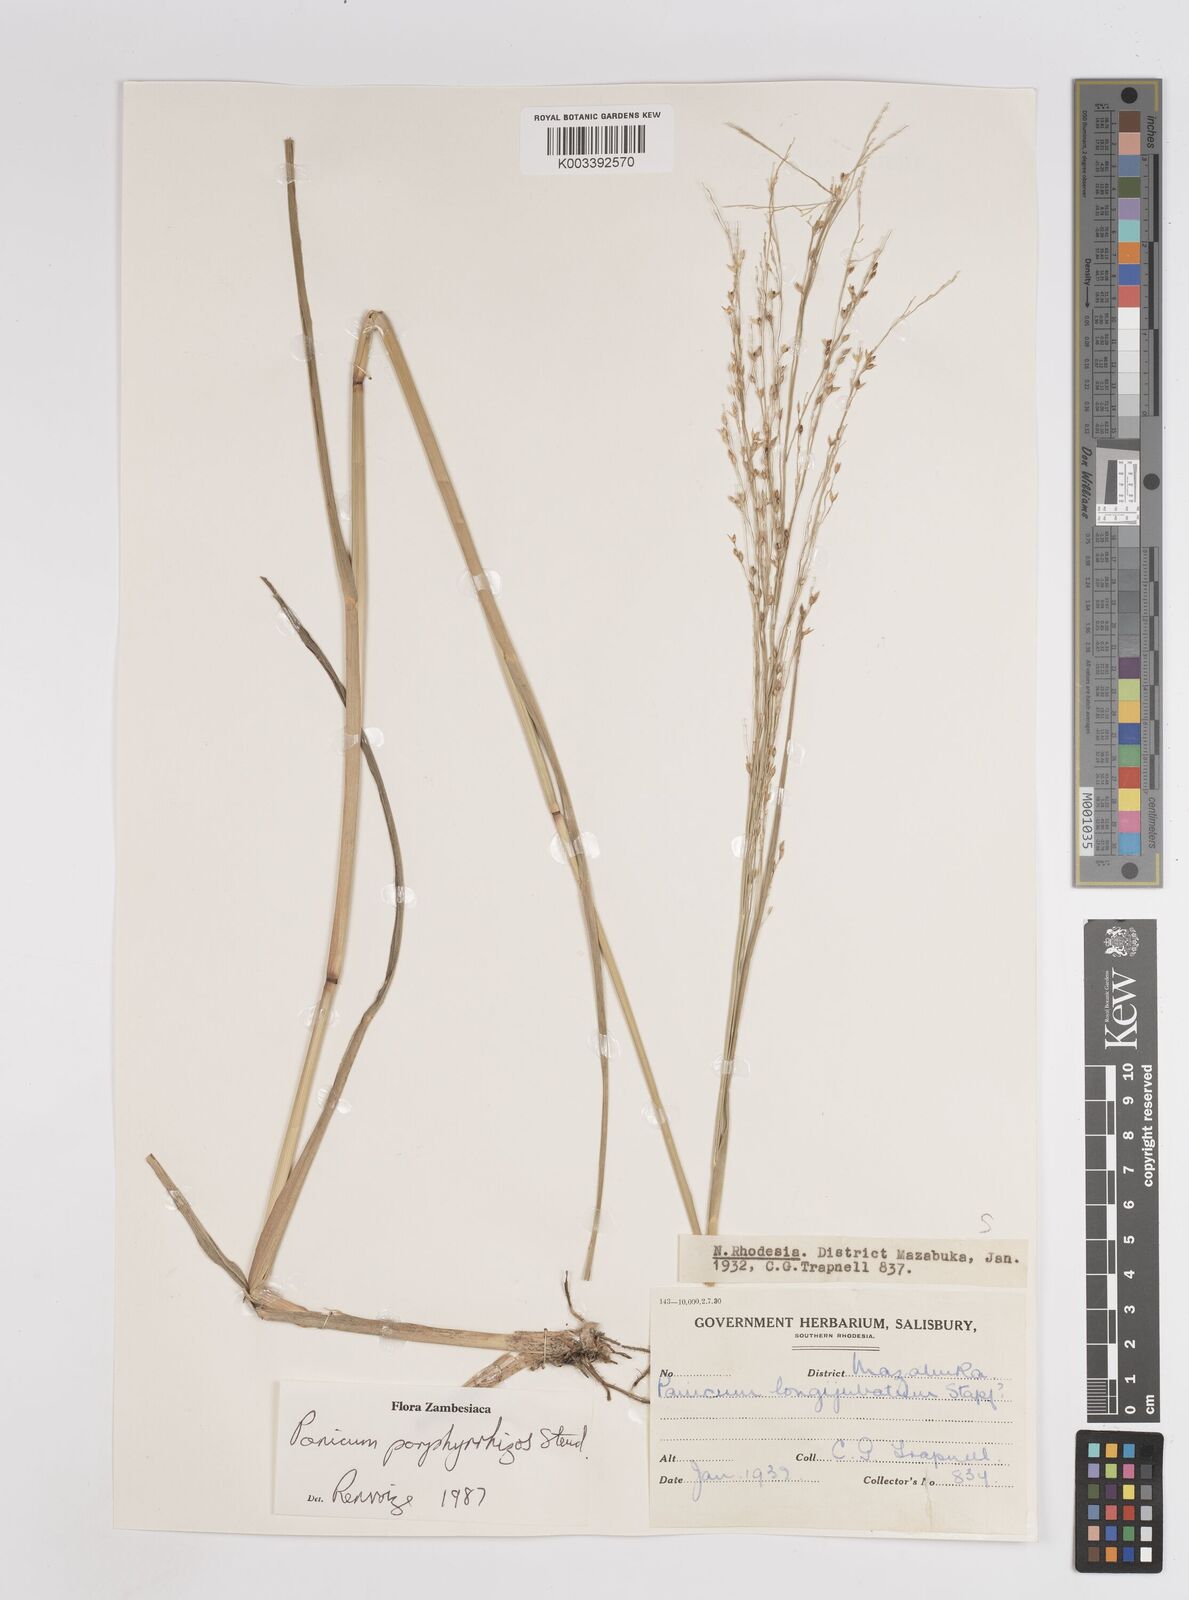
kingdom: Plantae
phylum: Tracheophyta
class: Liliopsida
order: Poales
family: Poaceae
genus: Panicum
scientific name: Panicum porphyrrhizos
